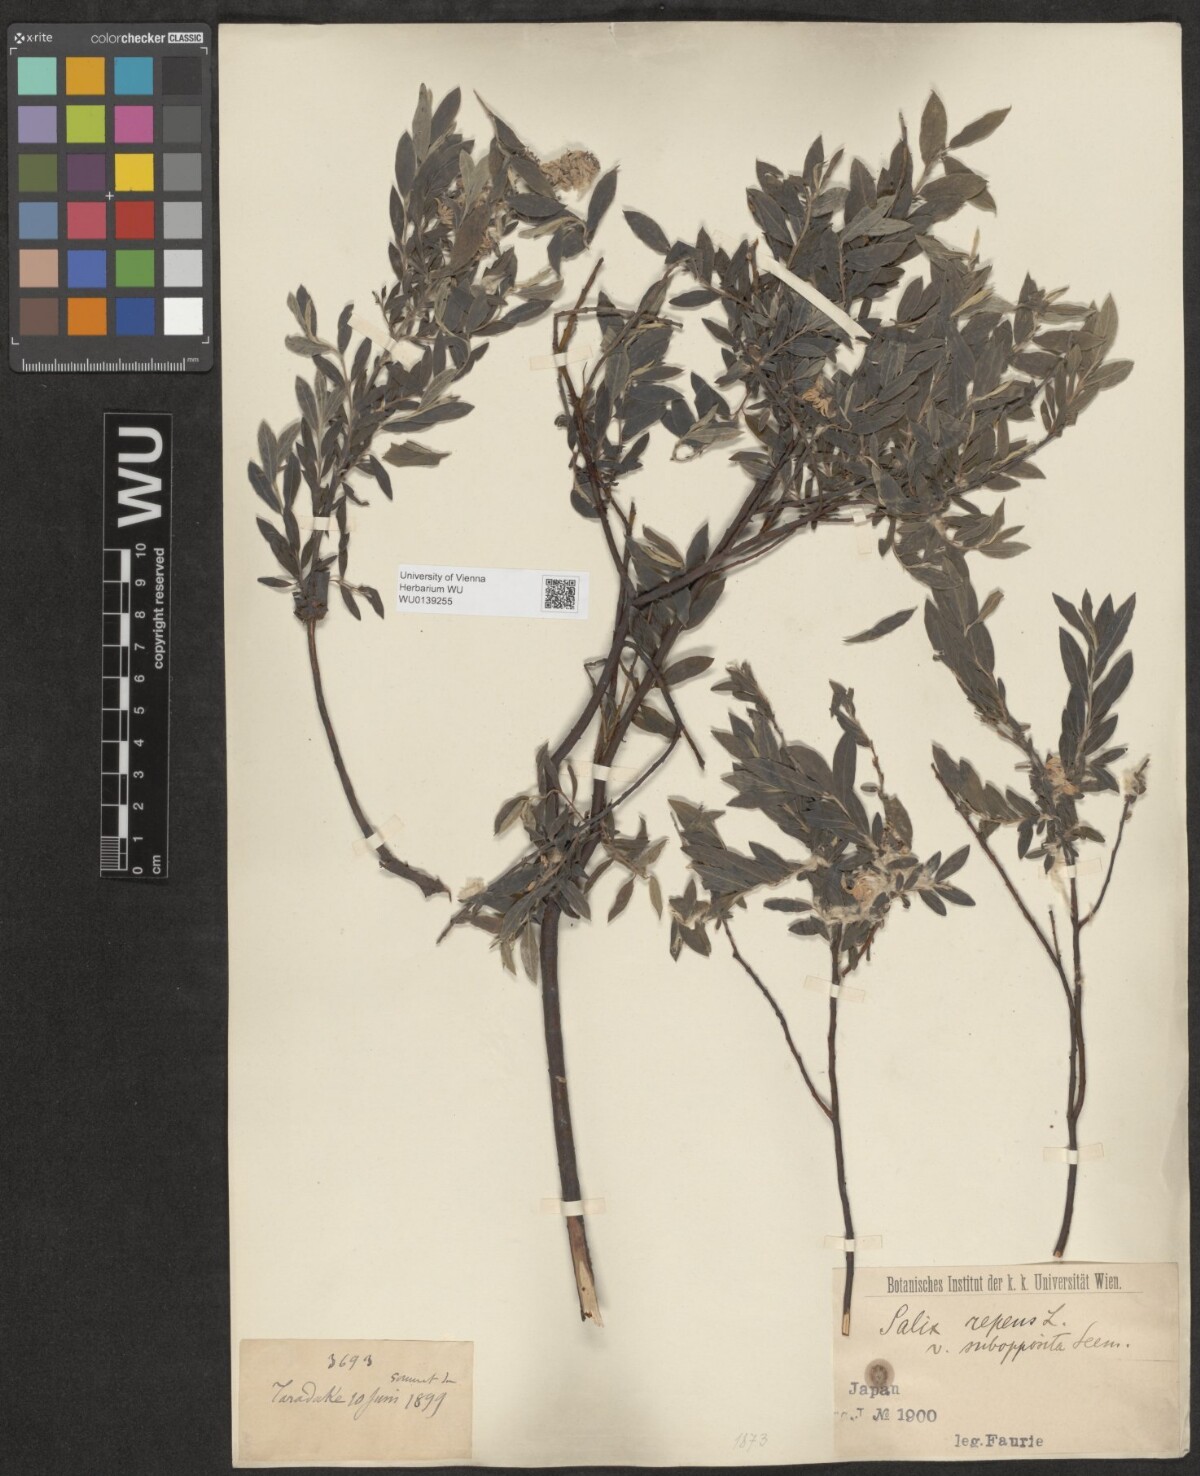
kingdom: Plantae
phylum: Tracheophyta
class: Magnoliopsida
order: Malpighiales
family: Salicaceae
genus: Salix
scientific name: Salix repens
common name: Creeping willow
